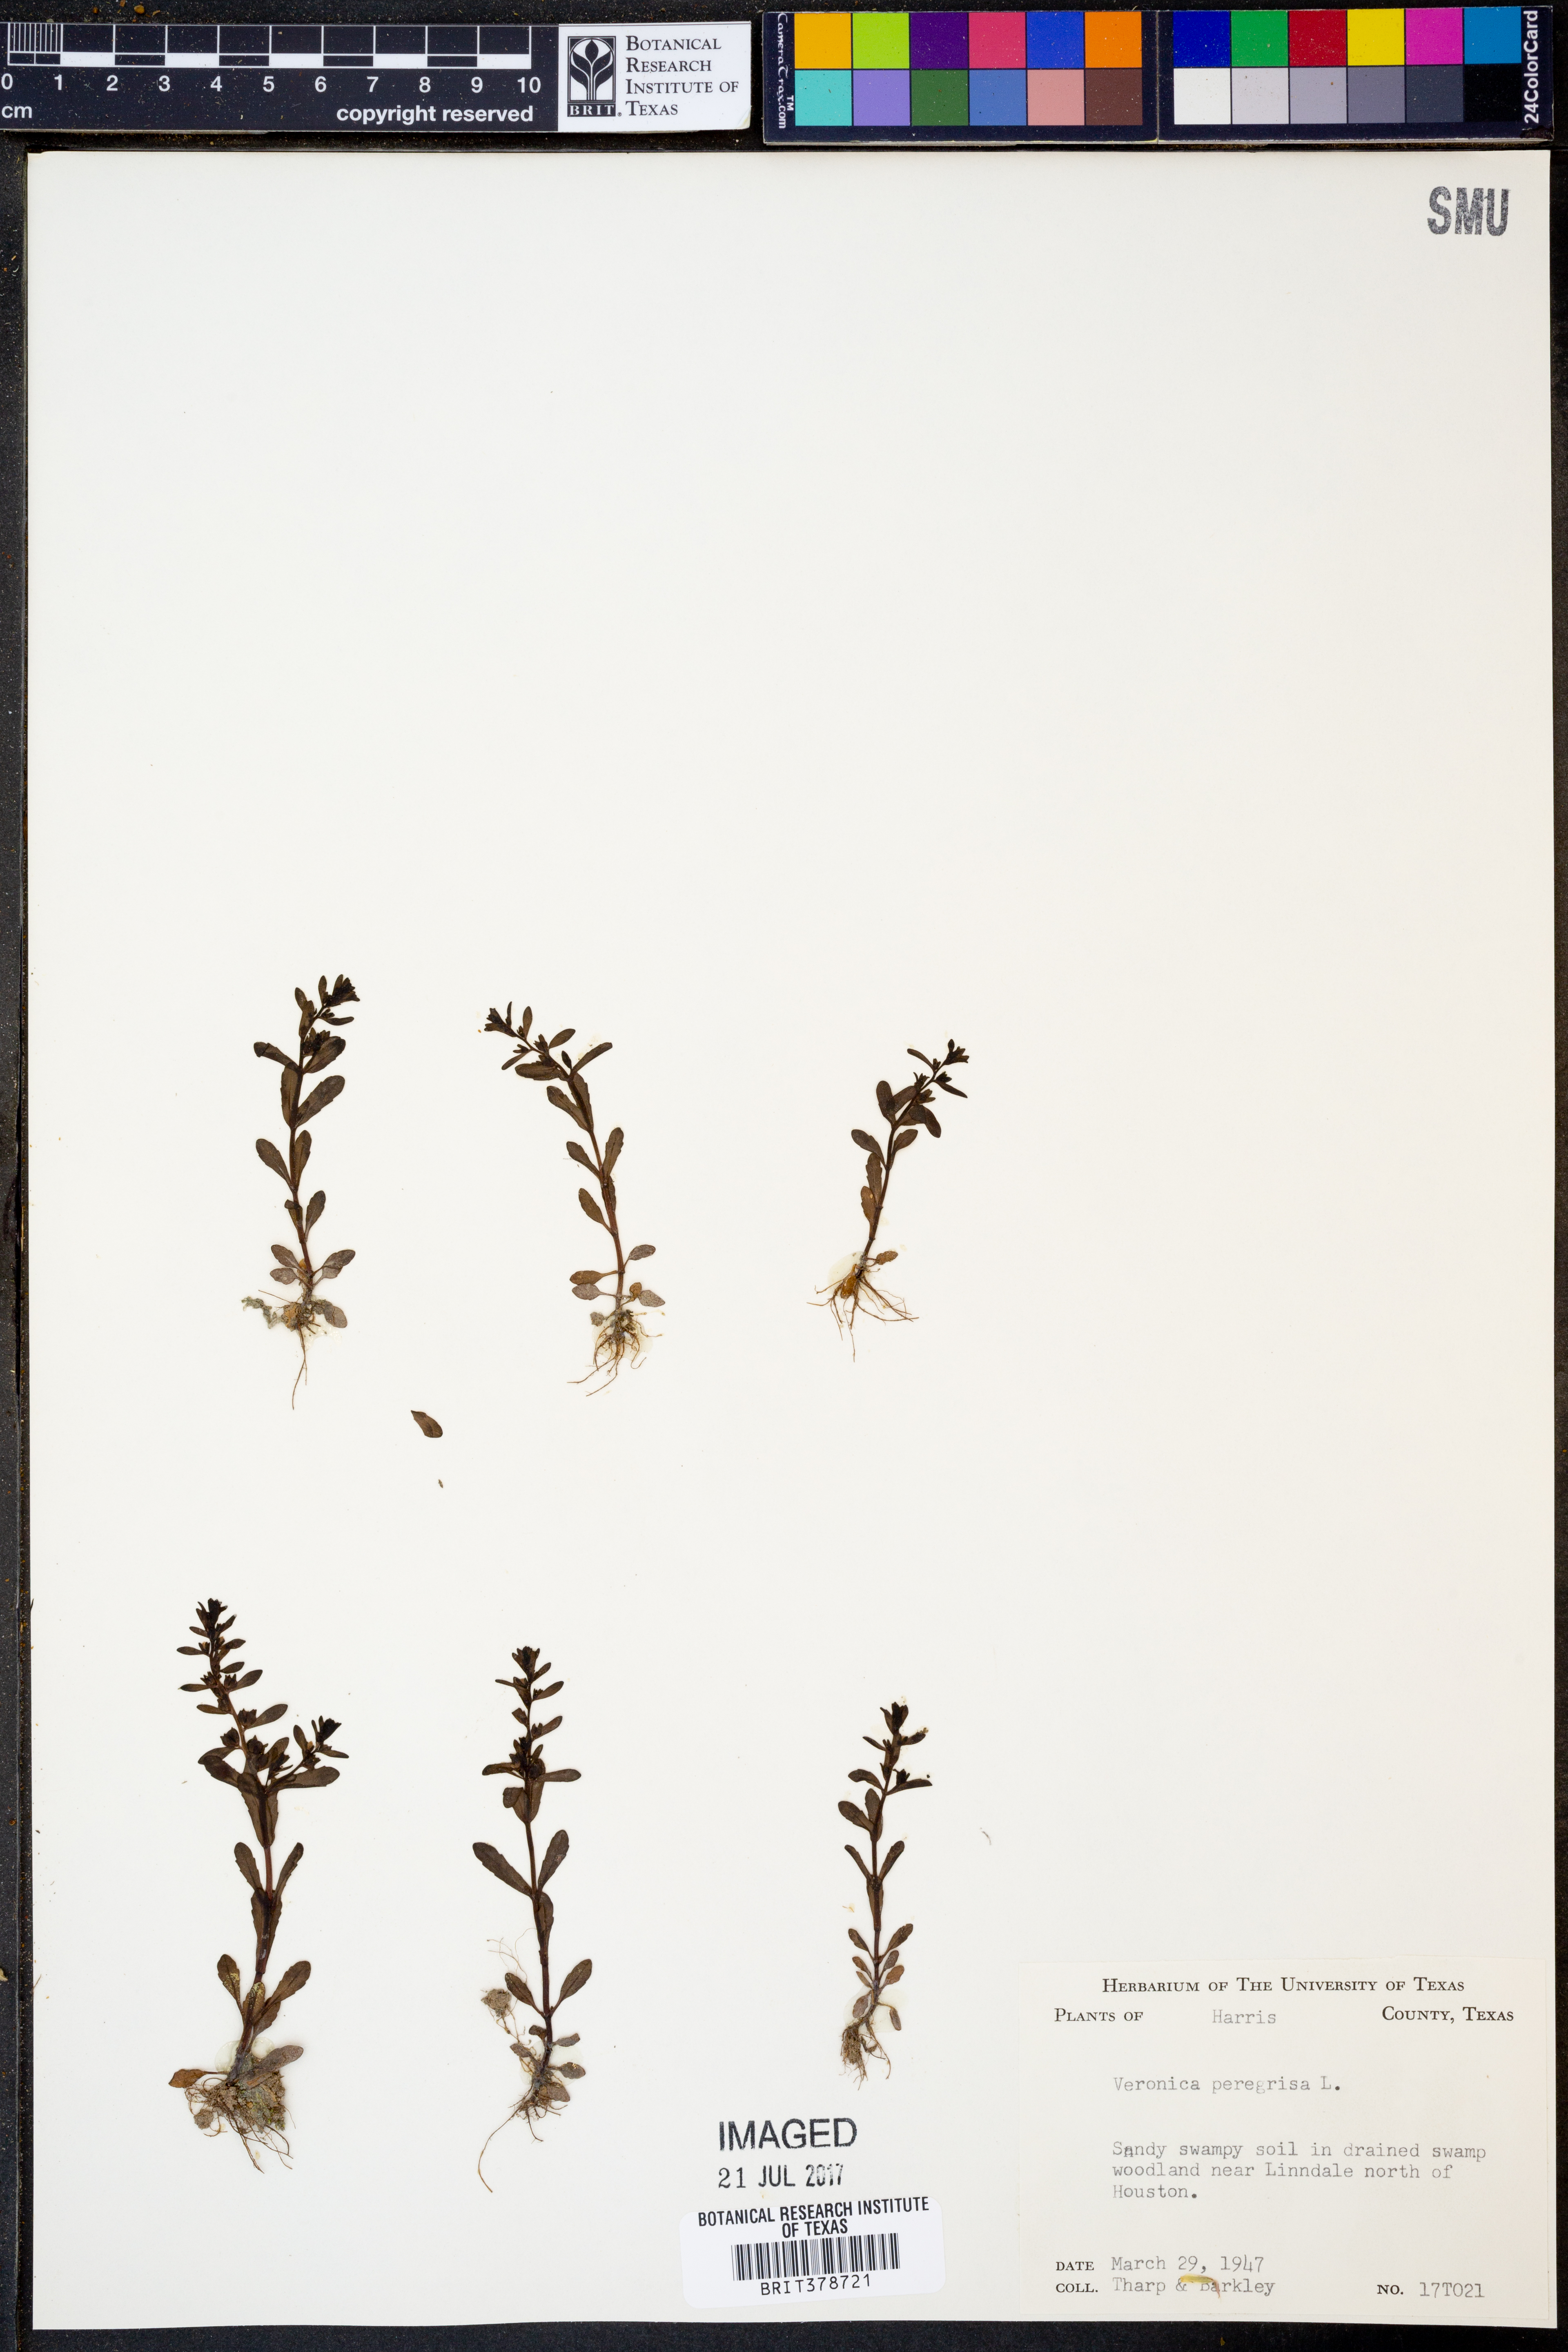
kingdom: Plantae
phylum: Tracheophyta
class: Magnoliopsida
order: Lamiales
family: Plantaginaceae
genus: Veronica
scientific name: Veronica peregrina
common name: Neckweed
